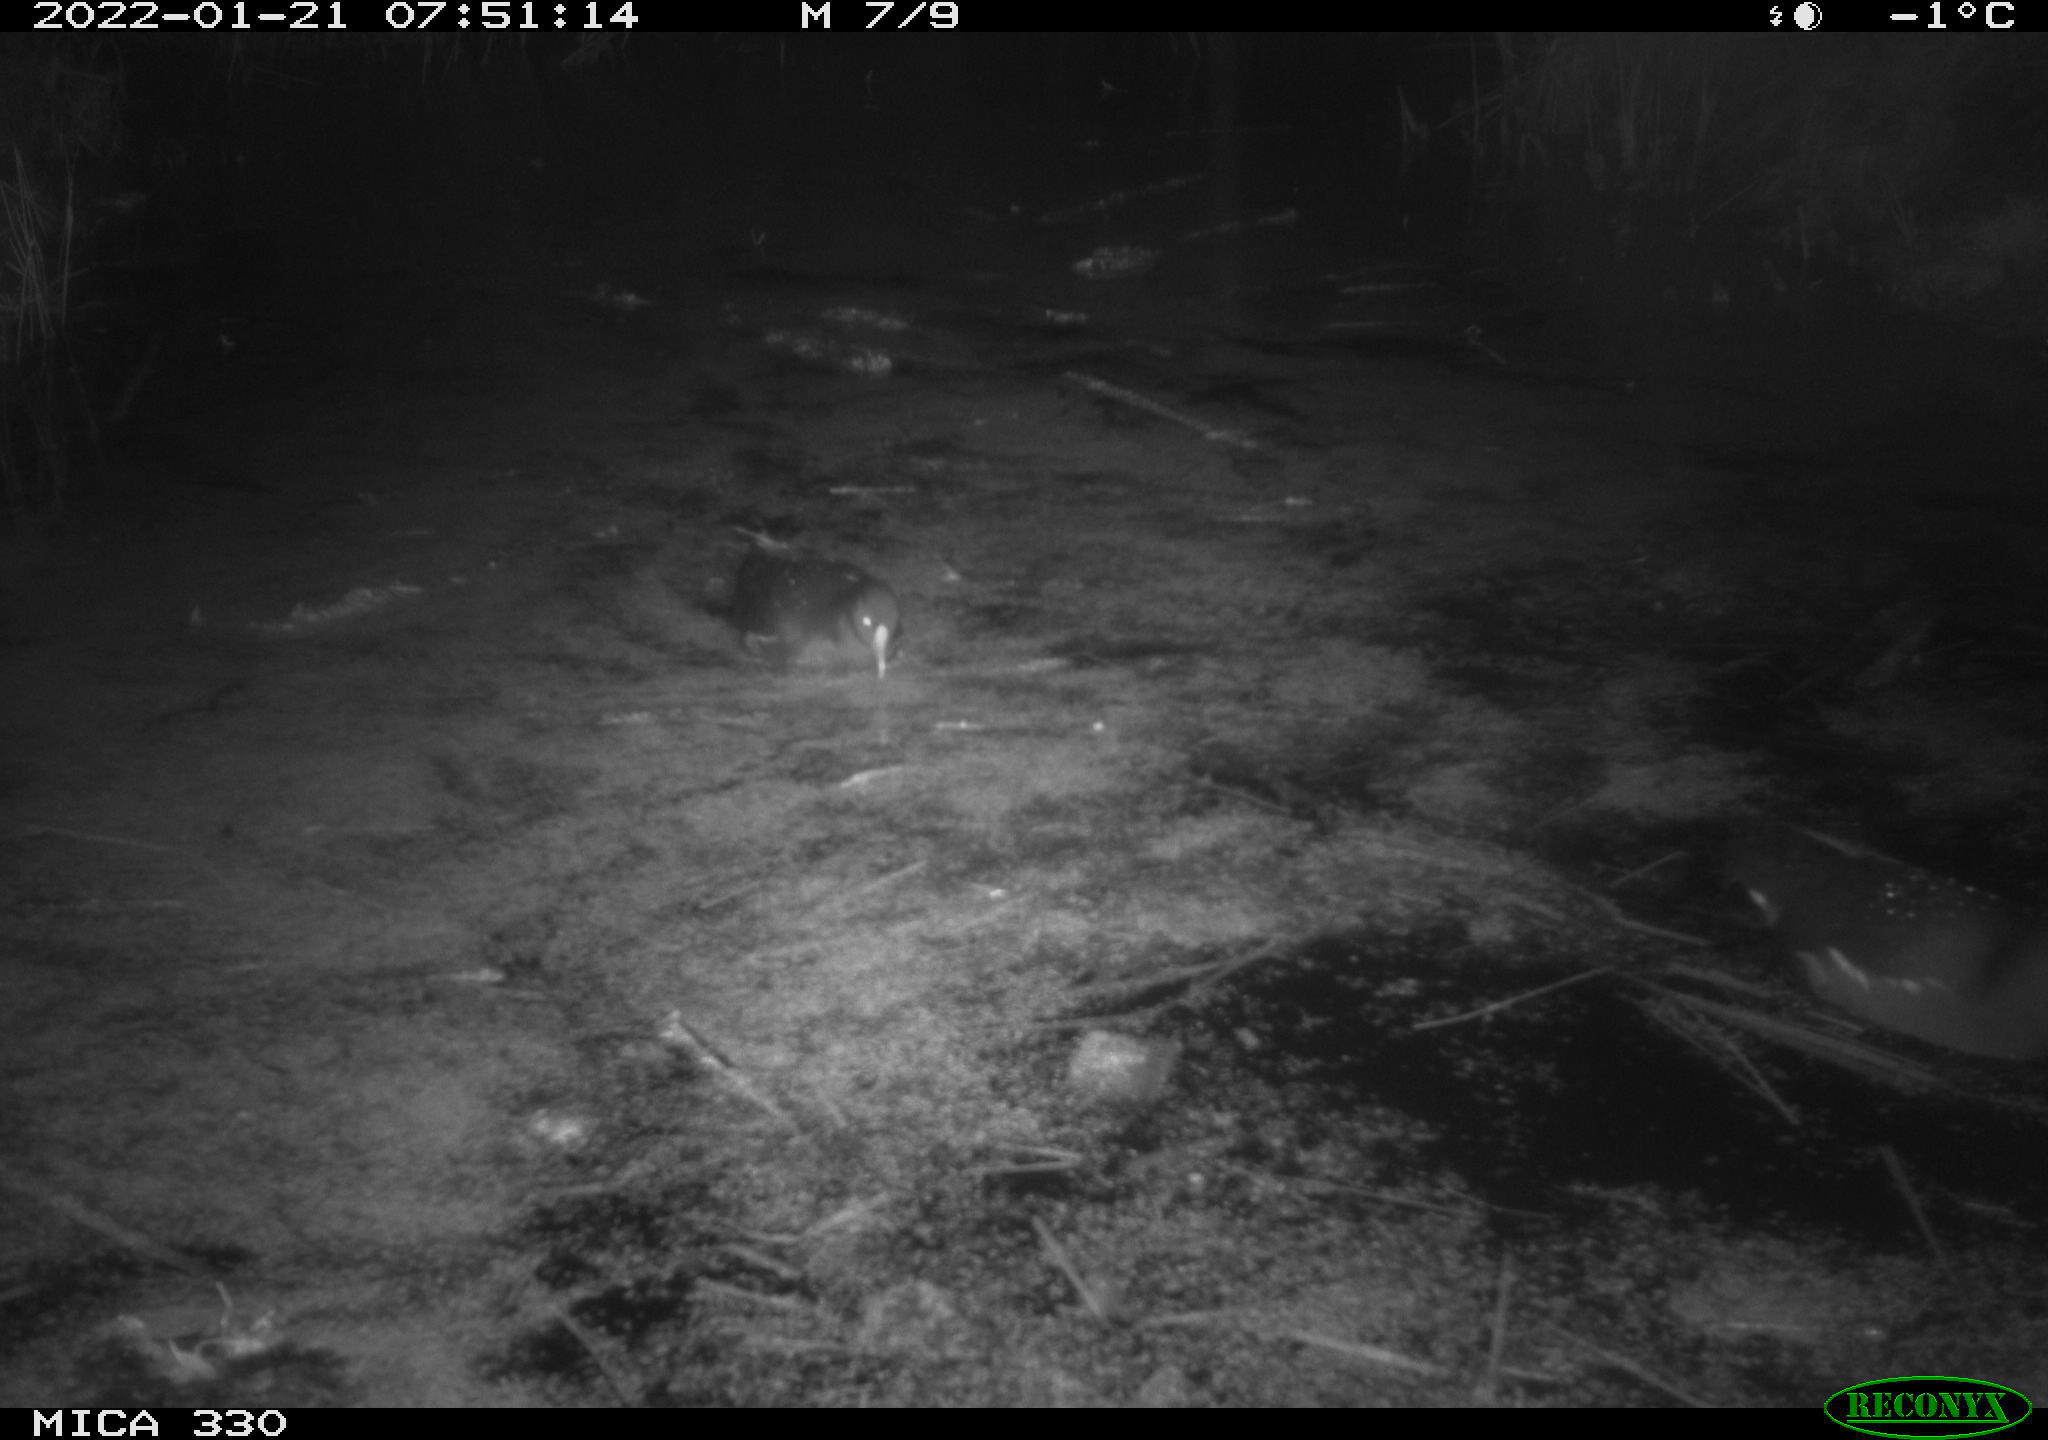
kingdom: Animalia
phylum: Chordata
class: Aves
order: Gruiformes
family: Rallidae
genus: Gallinula
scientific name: Gallinula chloropus
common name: Common moorhen
